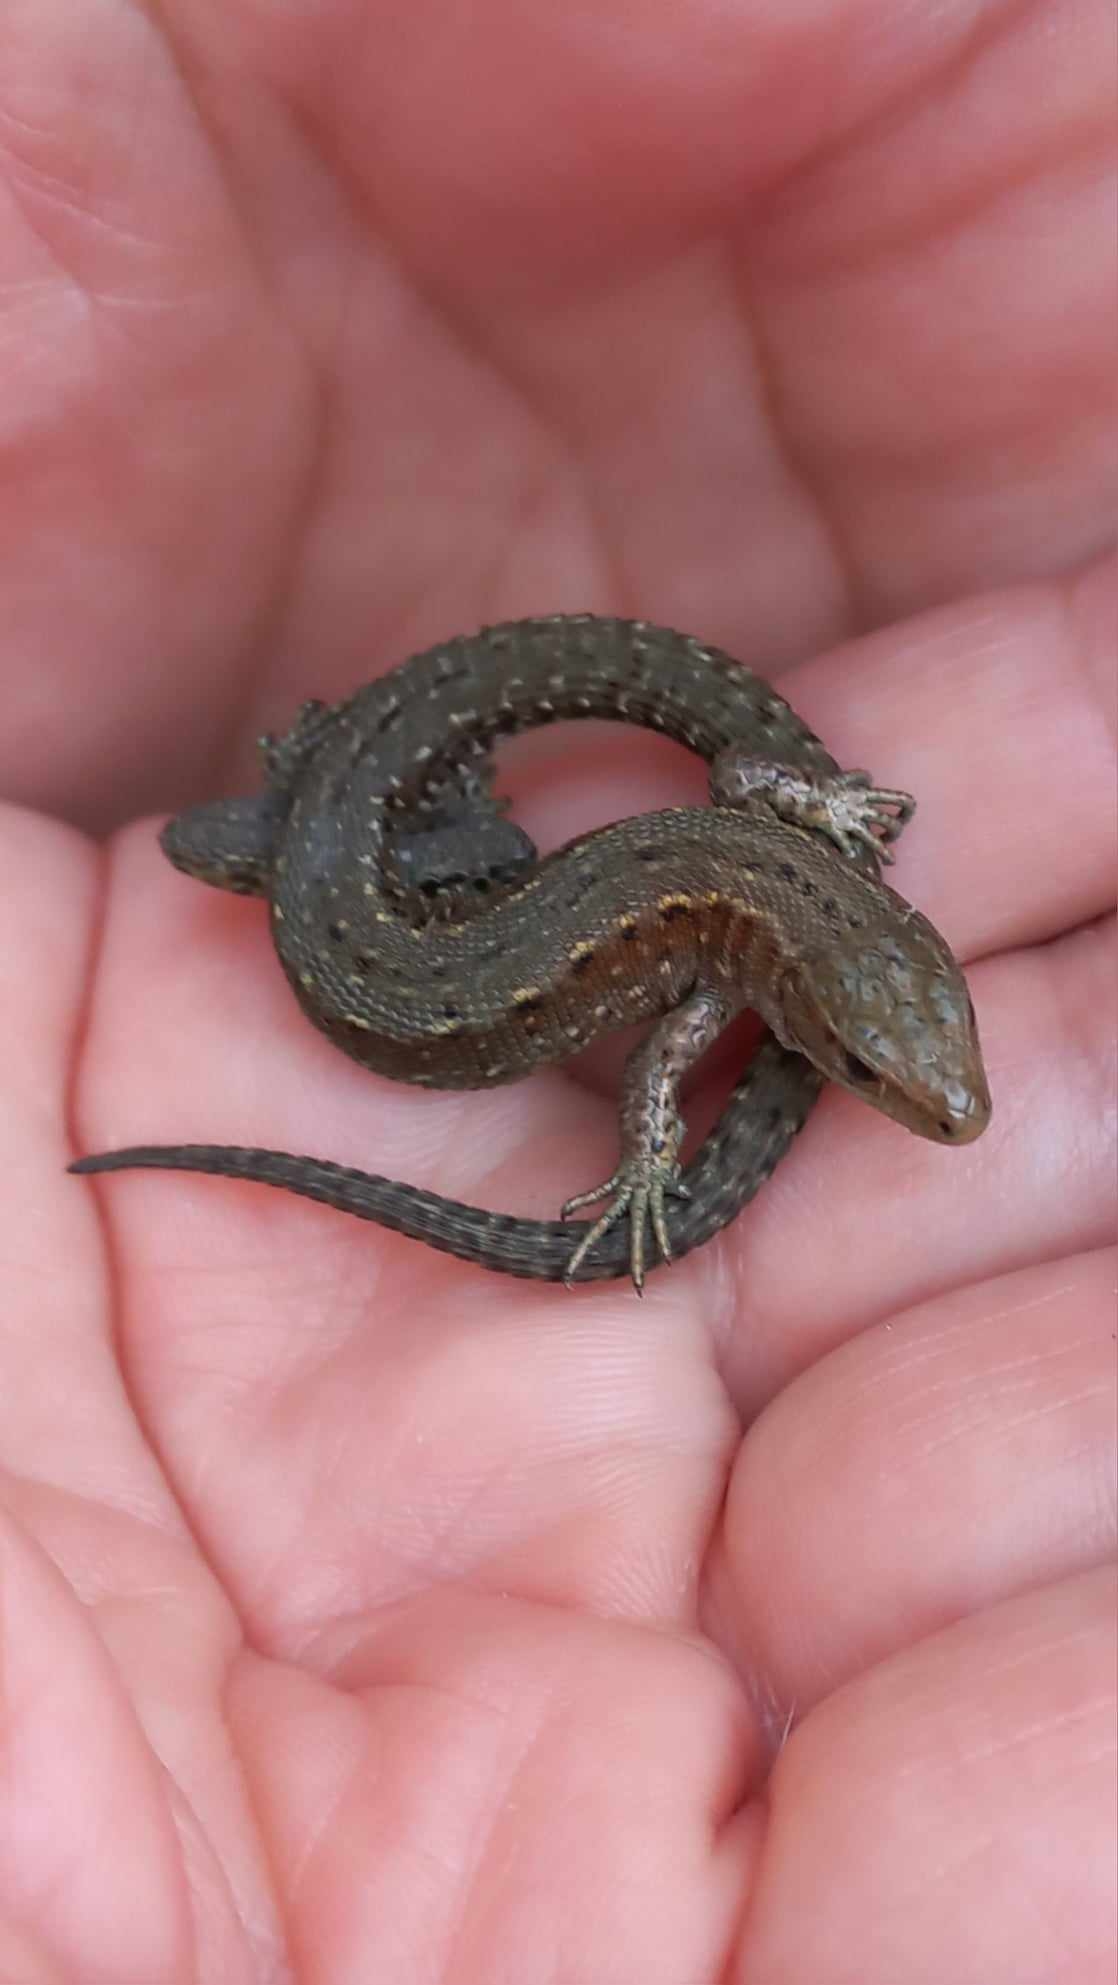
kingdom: Animalia
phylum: Chordata
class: Squamata
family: Lacertidae
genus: Zootoca
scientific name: Zootoca vivipara
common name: Skovfirben
